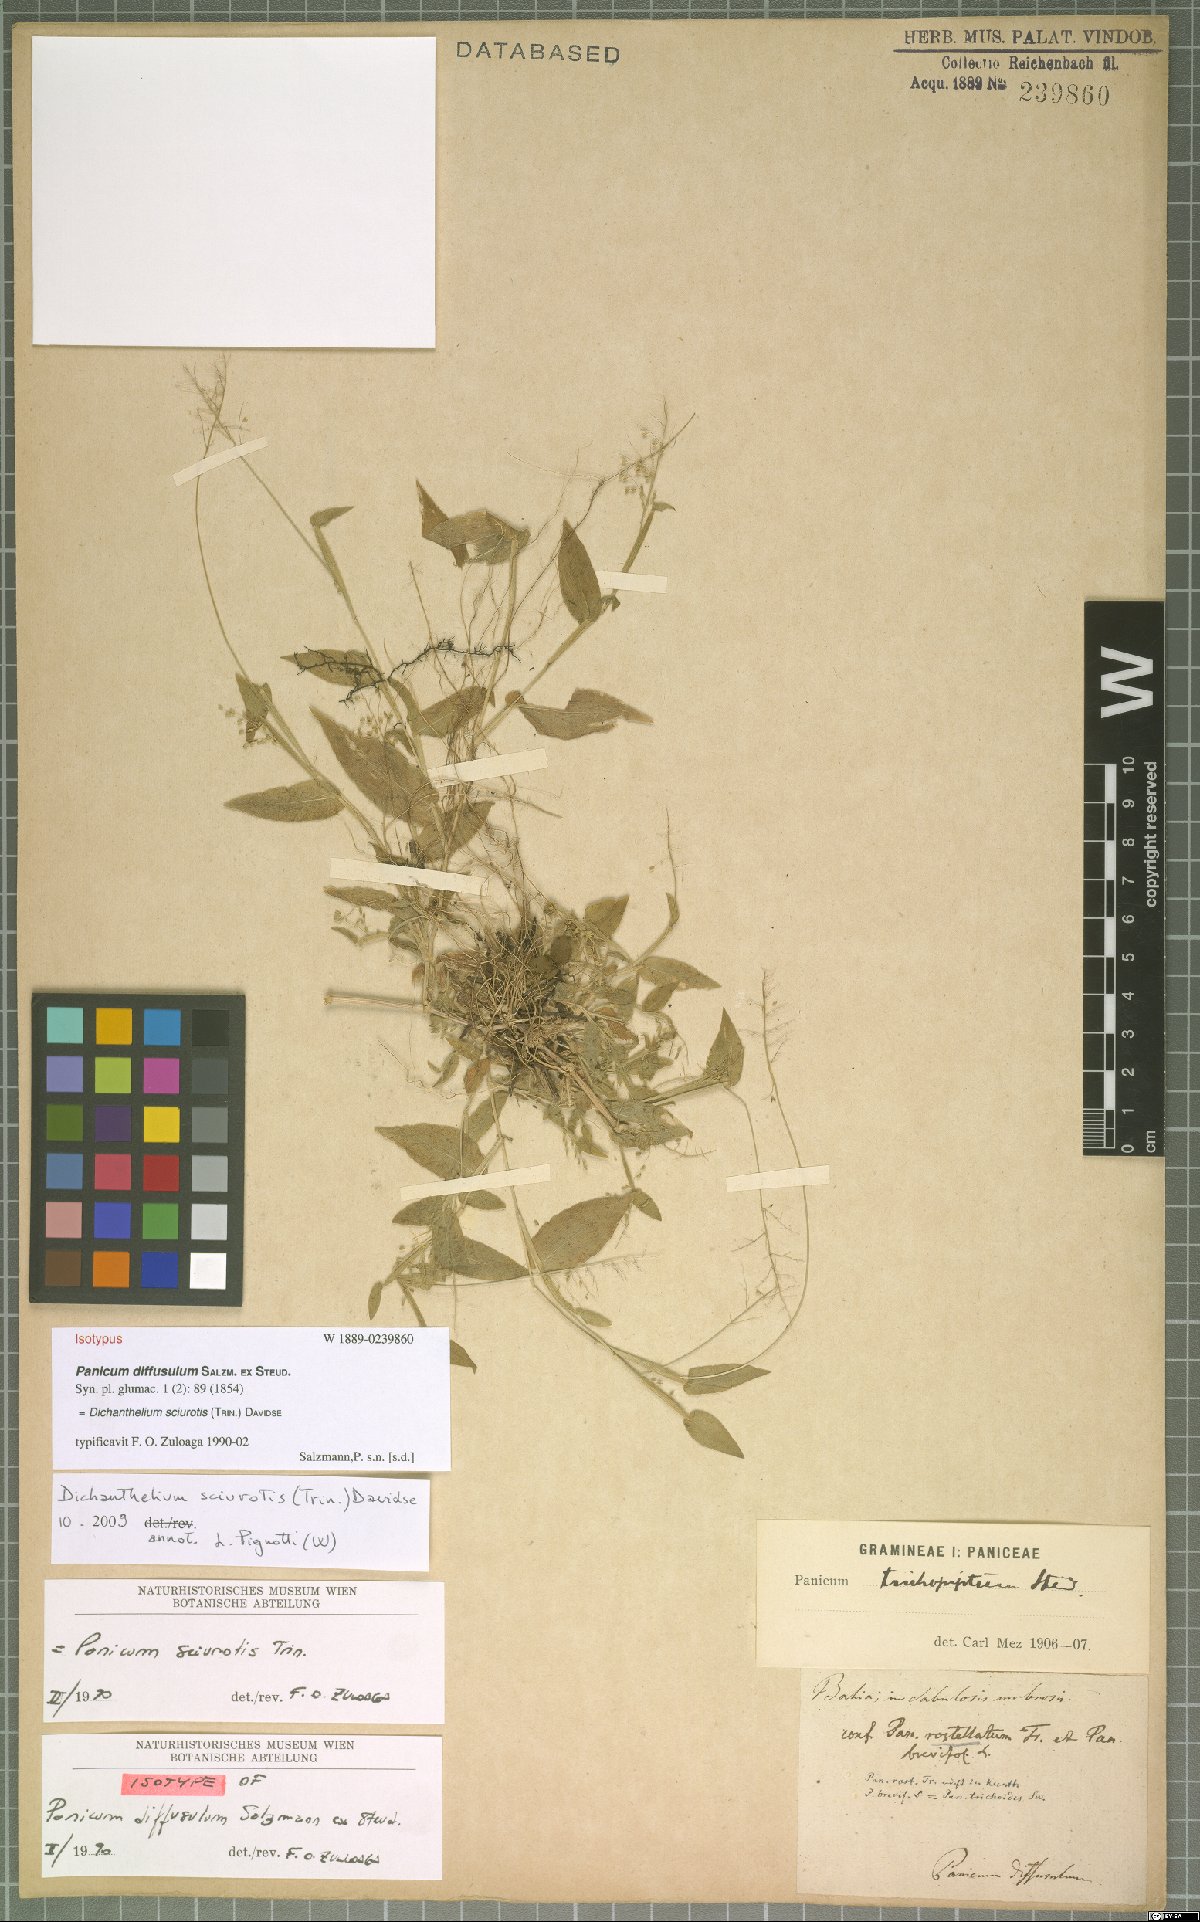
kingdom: Plantae
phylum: Tracheophyta
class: Liliopsida
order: Poales
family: Poaceae
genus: Dichanthelium
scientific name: Dichanthelium sciurotis
